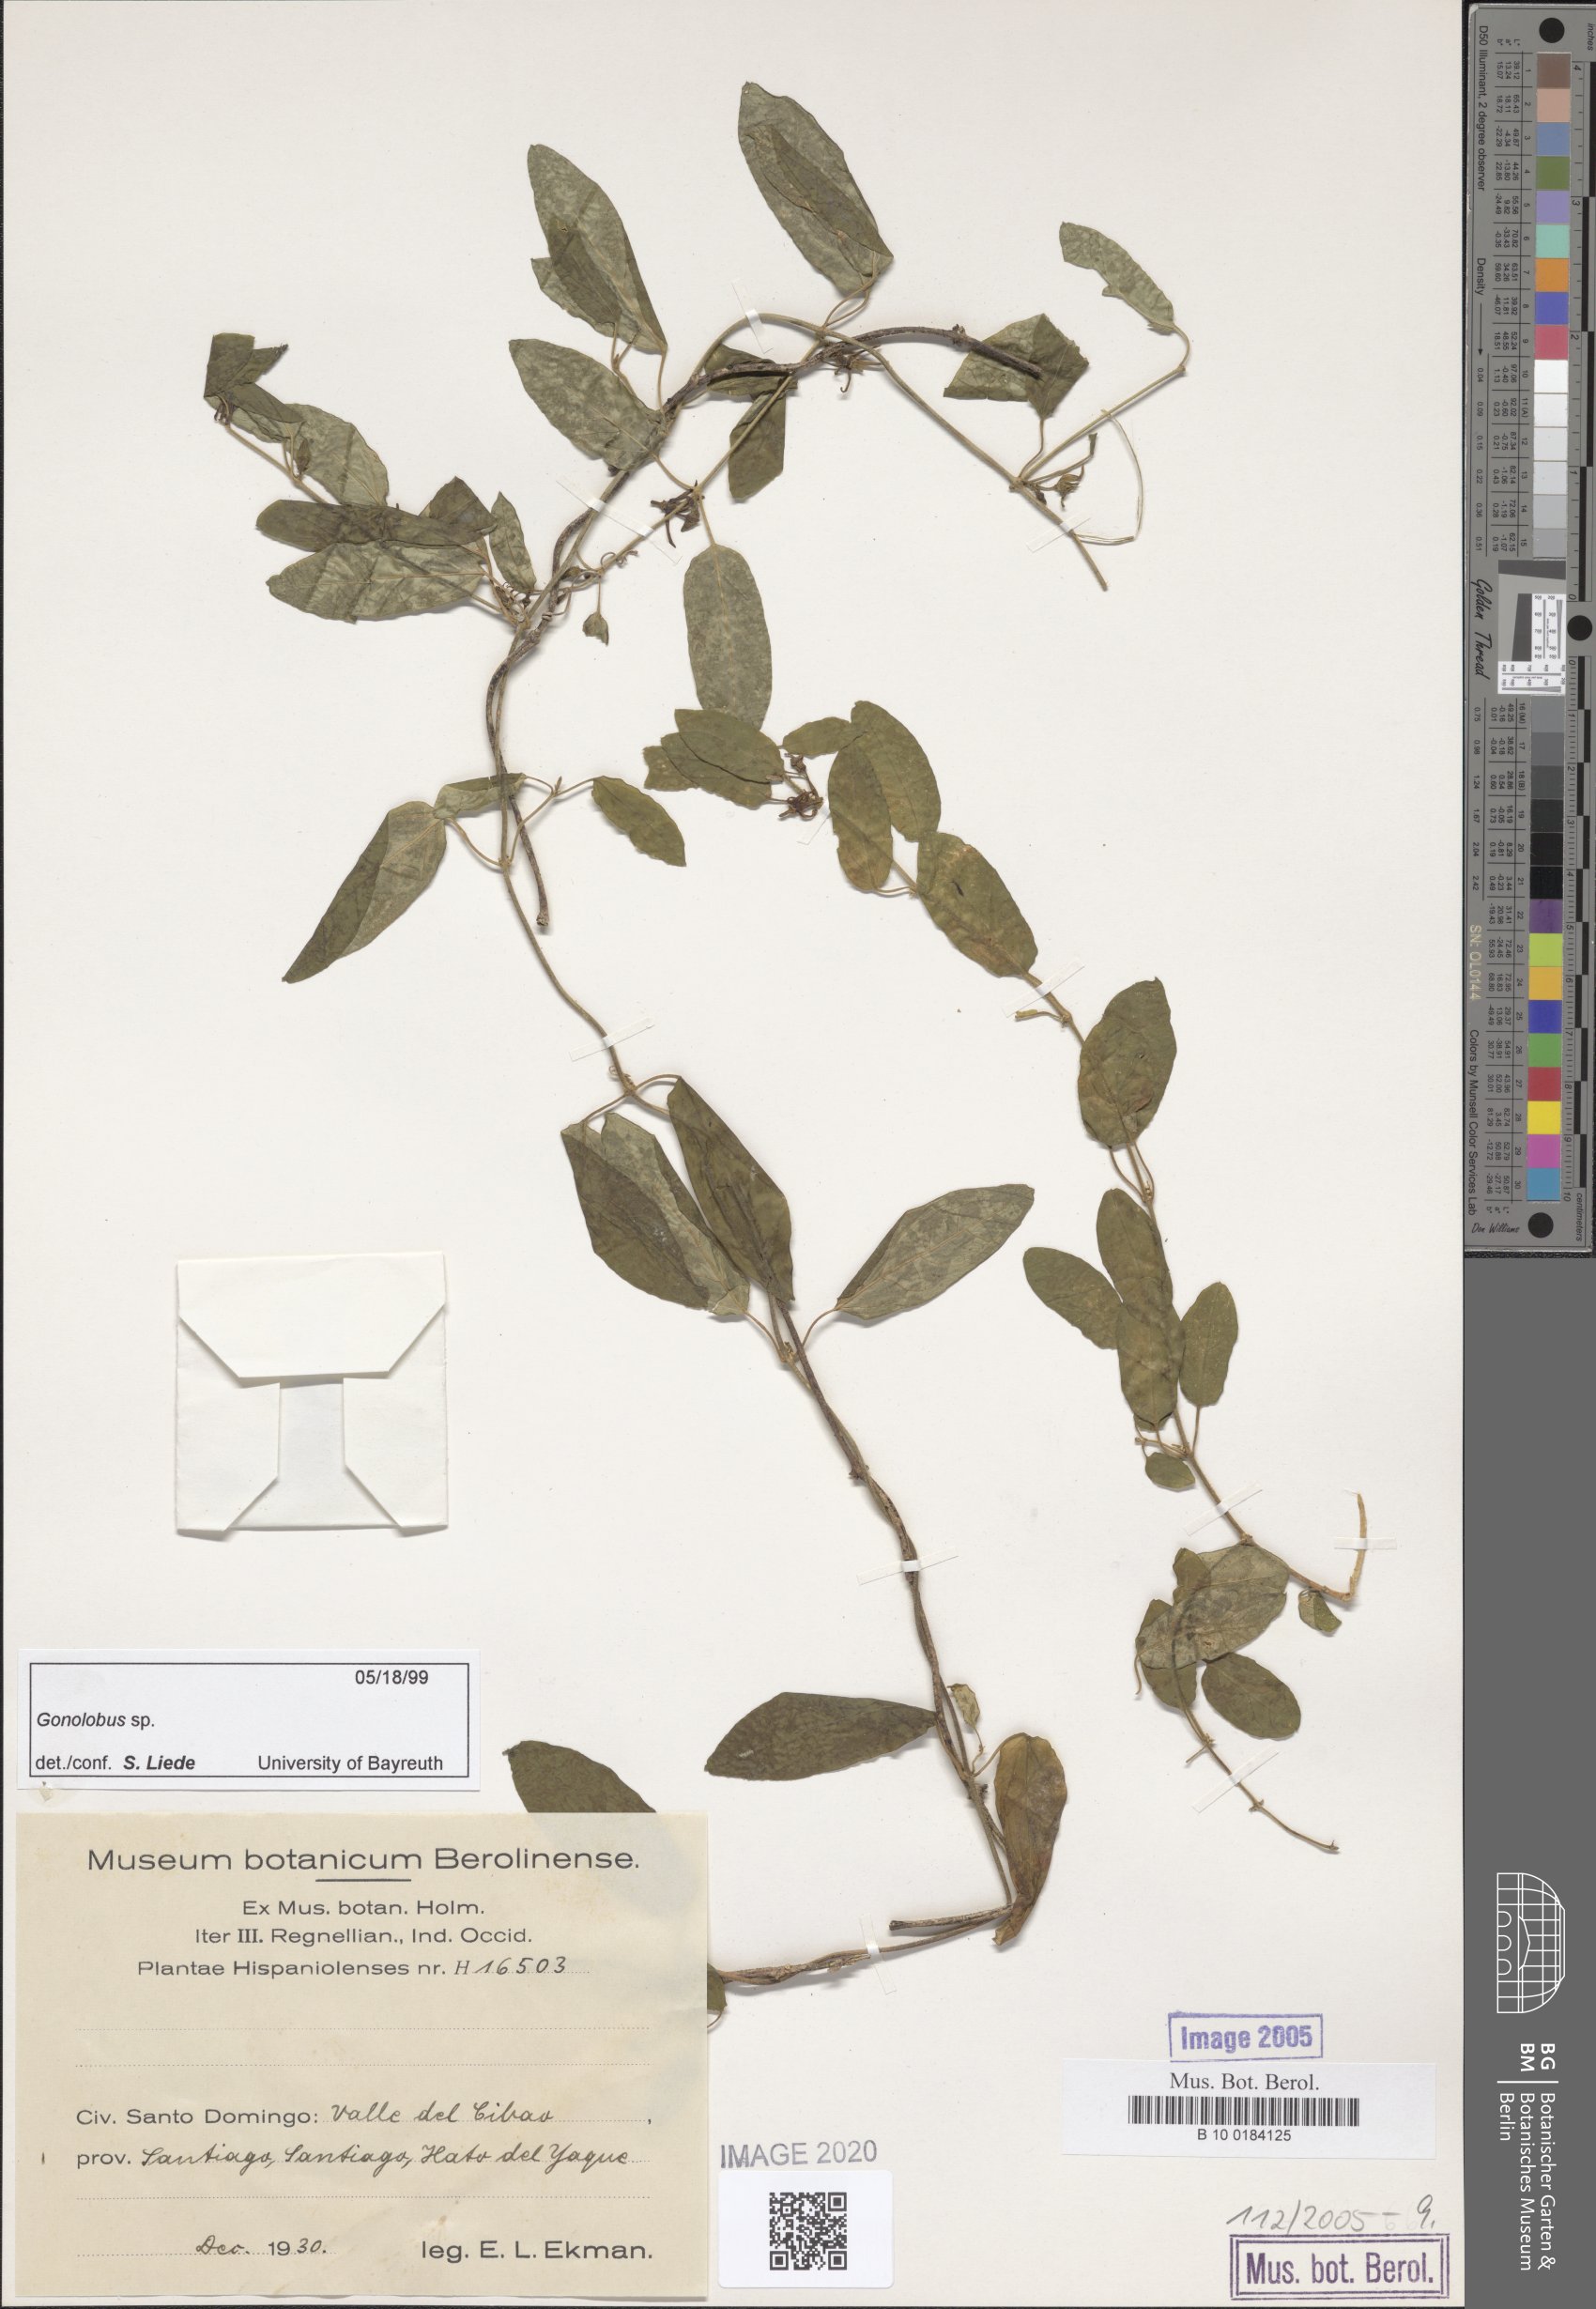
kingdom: Plantae
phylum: Tracheophyta
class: Magnoliopsida
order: Gentianales
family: Apocynaceae
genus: Gonolobus
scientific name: Gonolobus
